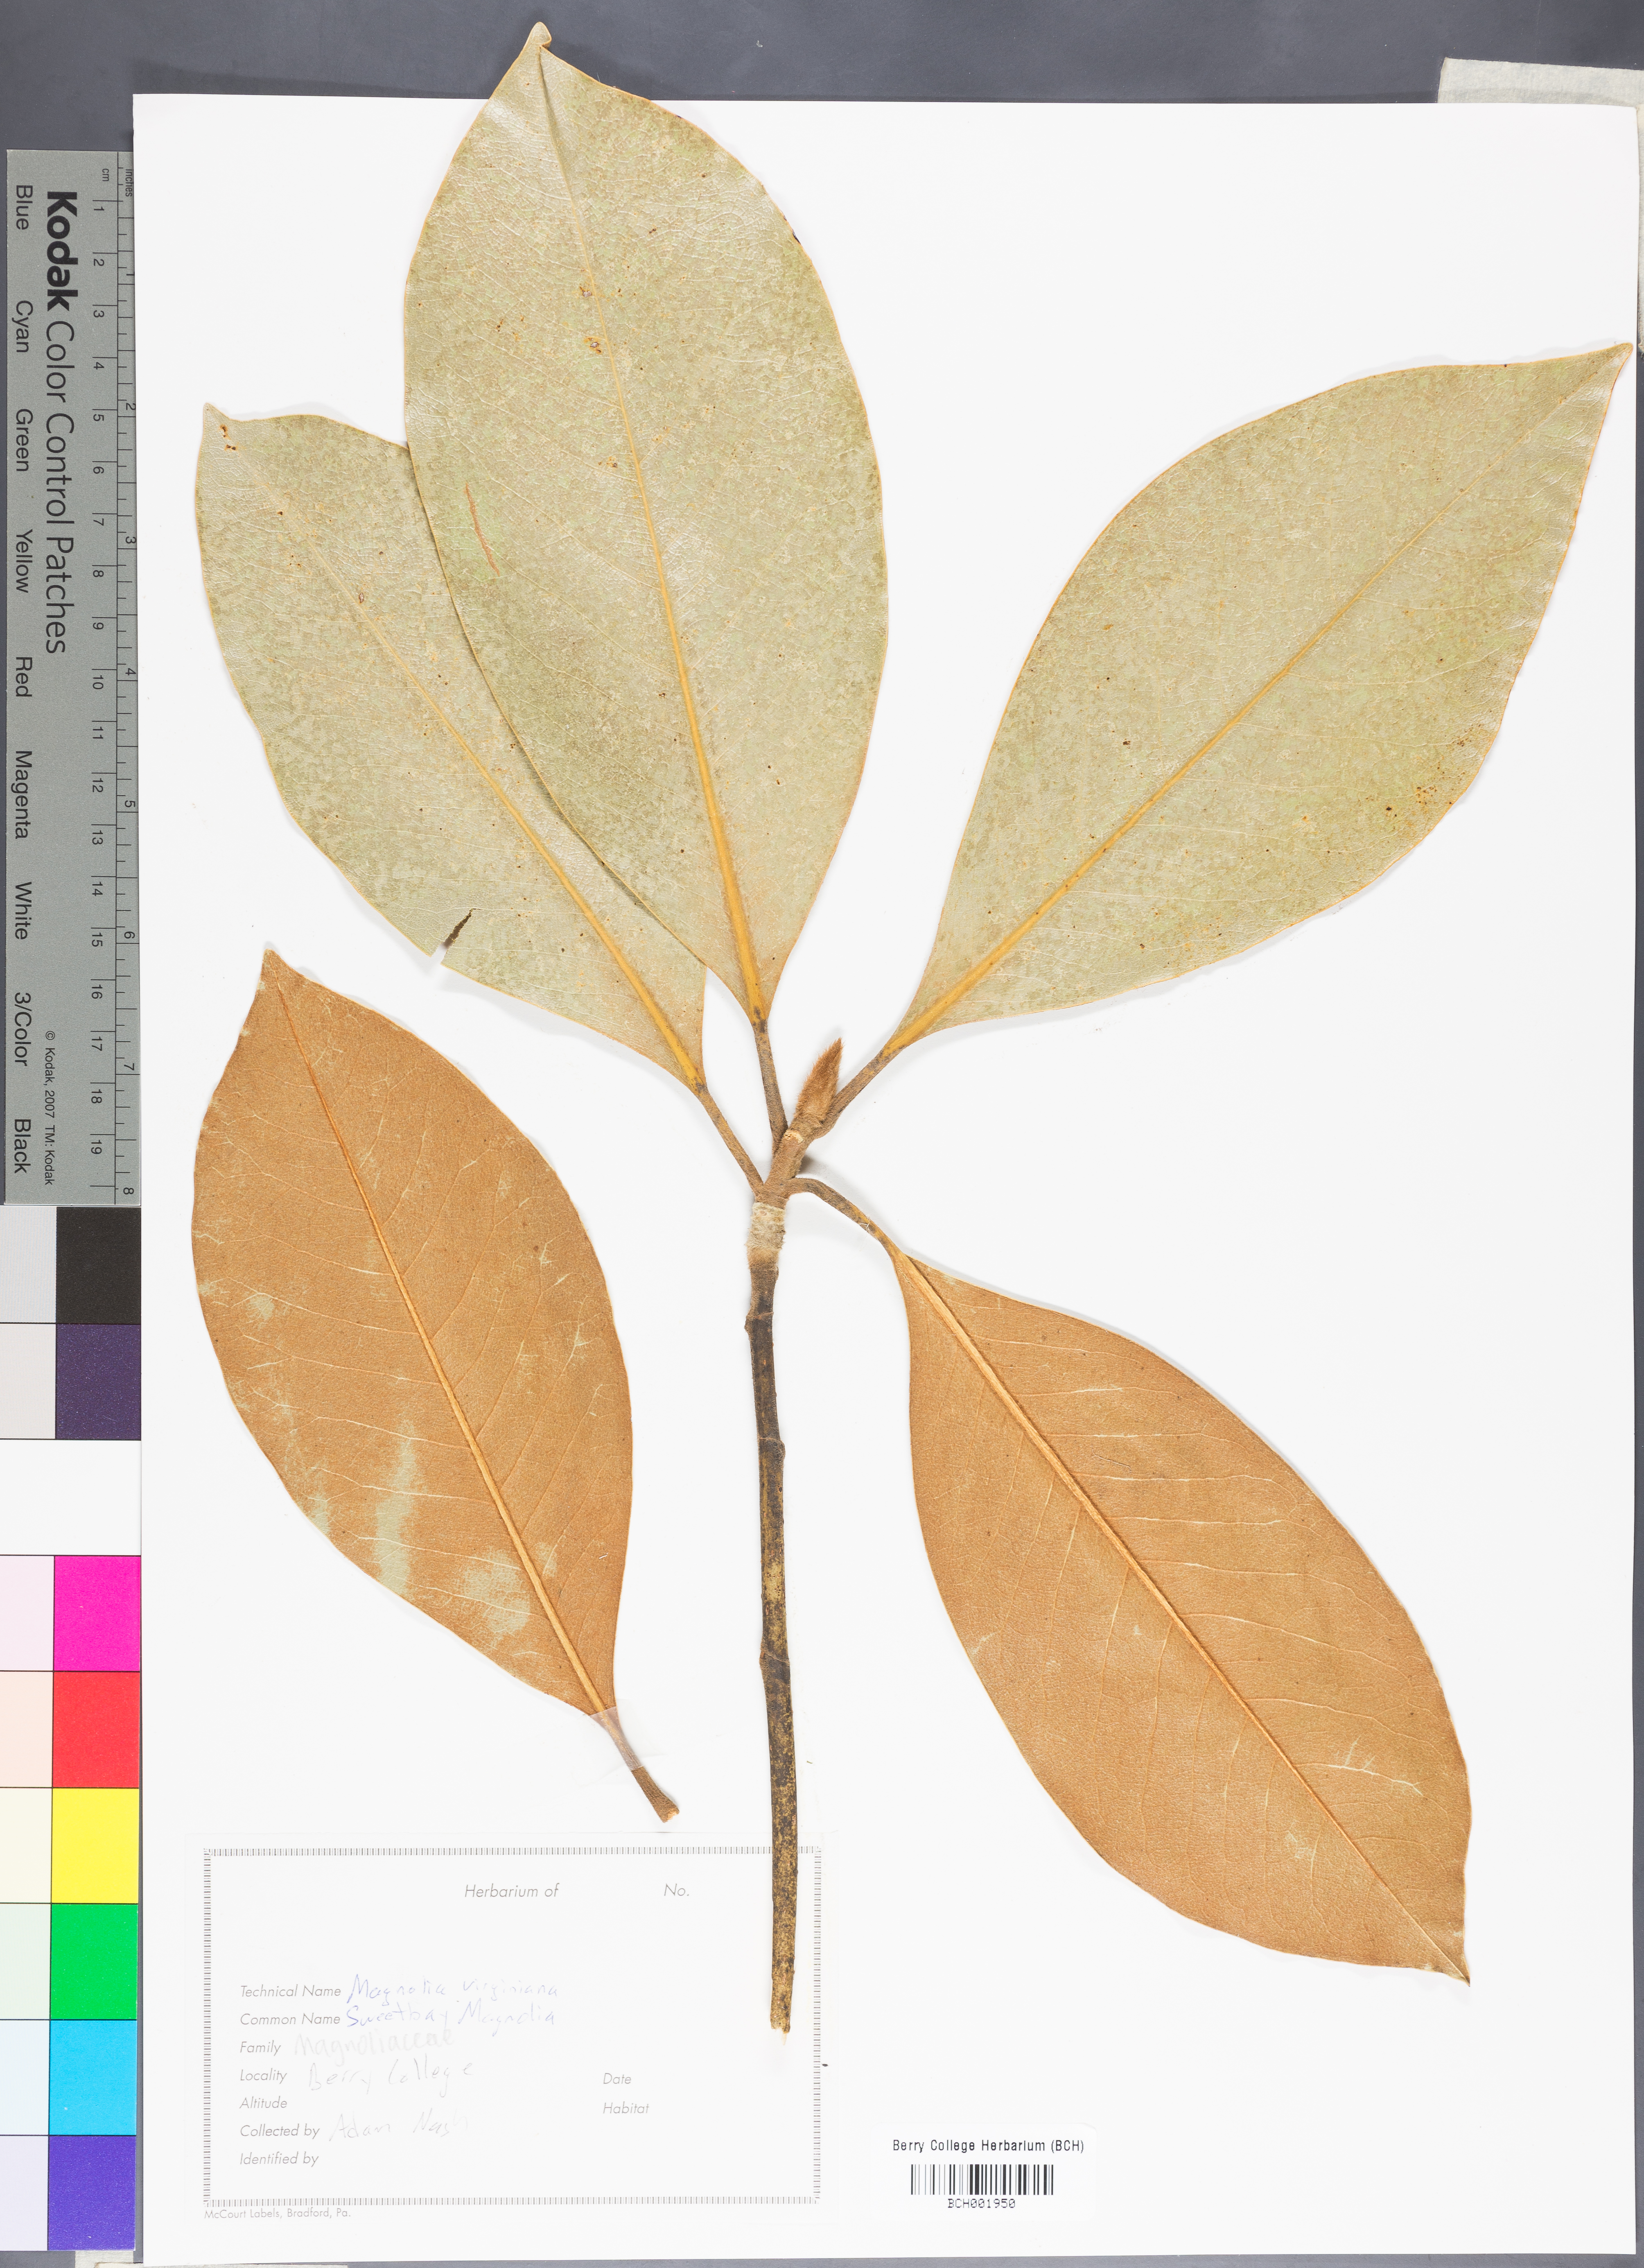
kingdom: Plantae
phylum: Tracheophyta
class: Magnoliopsida
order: Magnoliales
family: Magnoliaceae
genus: Magnolia
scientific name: Magnolia virginiana
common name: Swamp bay
